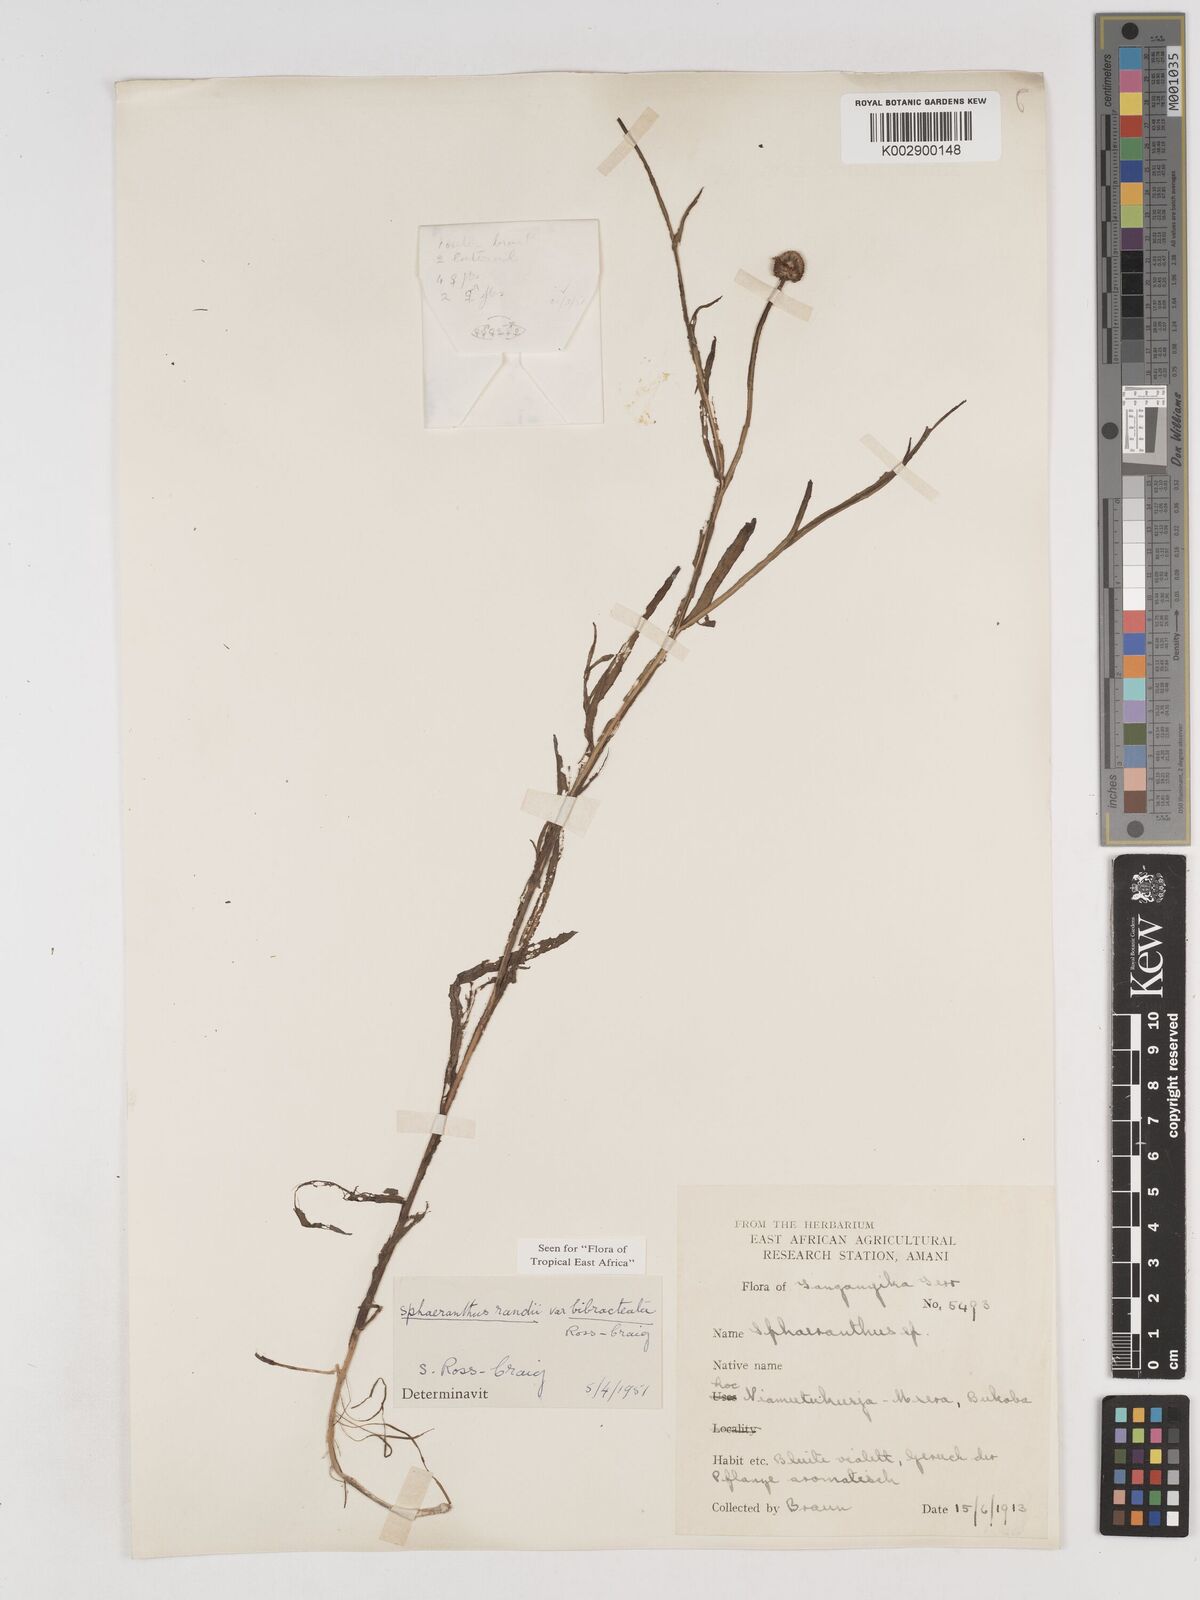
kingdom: Plantae
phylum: Tracheophyta
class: Magnoliopsida
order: Asterales
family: Asteraceae
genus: Sphaeranthus
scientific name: Sphaeranthus randii
